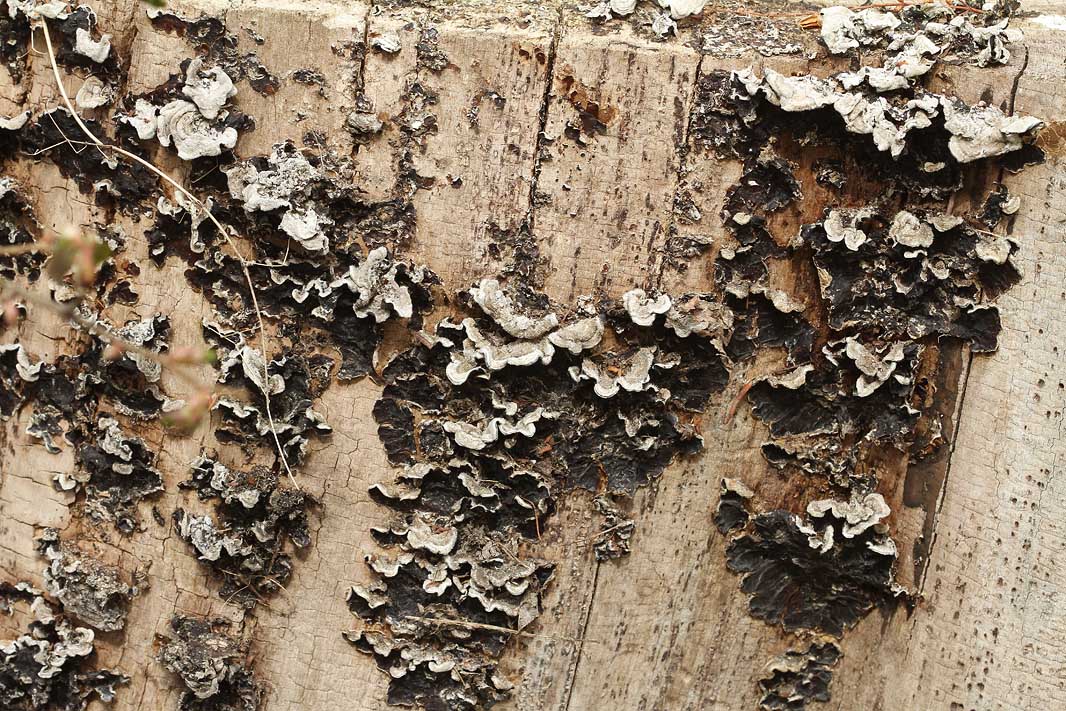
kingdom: Fungi
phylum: Basidiomycota
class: Agaricomycetes
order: Auriculariales
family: Auriculariaceae
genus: Auricularia
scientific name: Auricularia mesenterica
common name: håret judasøre
